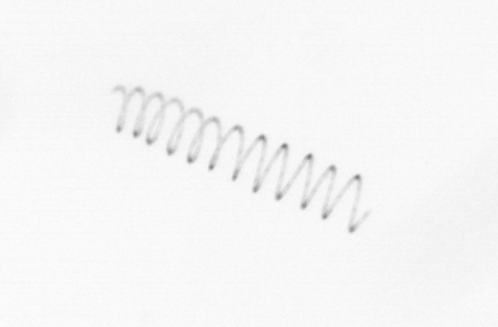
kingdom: Chromista
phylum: Ochrophyta
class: Bacillariophyceae
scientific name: Bacillariophyceae
